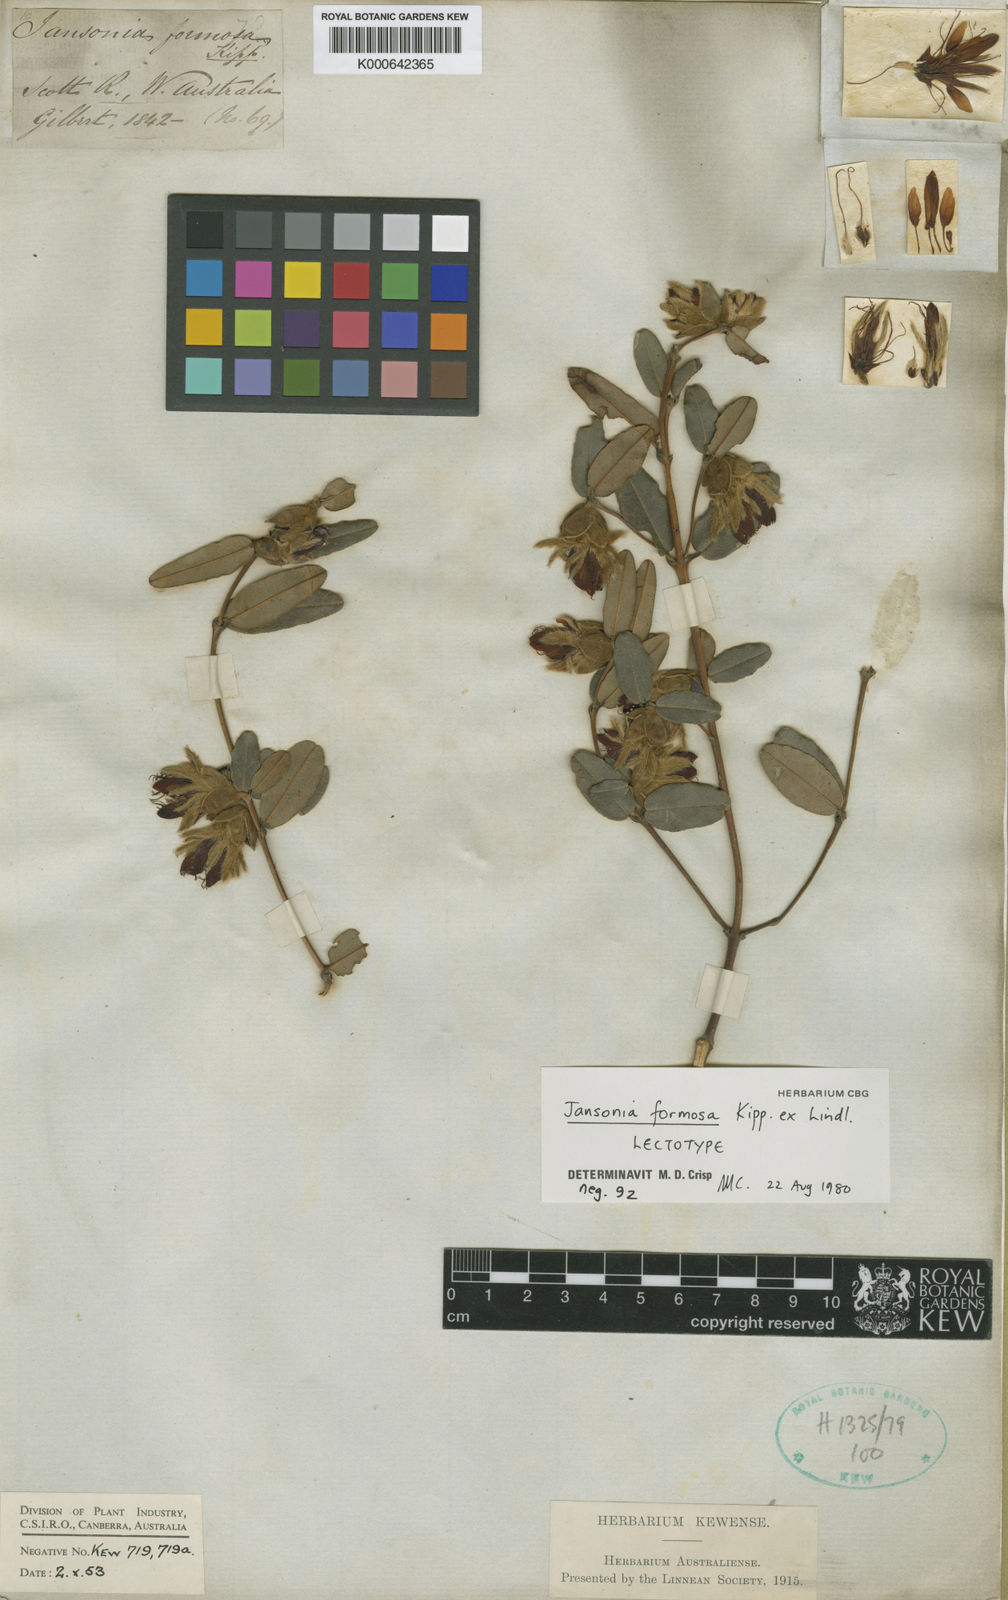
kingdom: Plantae
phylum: Tracheophyta
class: Magnoliopsida
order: Fabales
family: Fabaceae
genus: Gastrolobium
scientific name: Gastrolobium formosum
